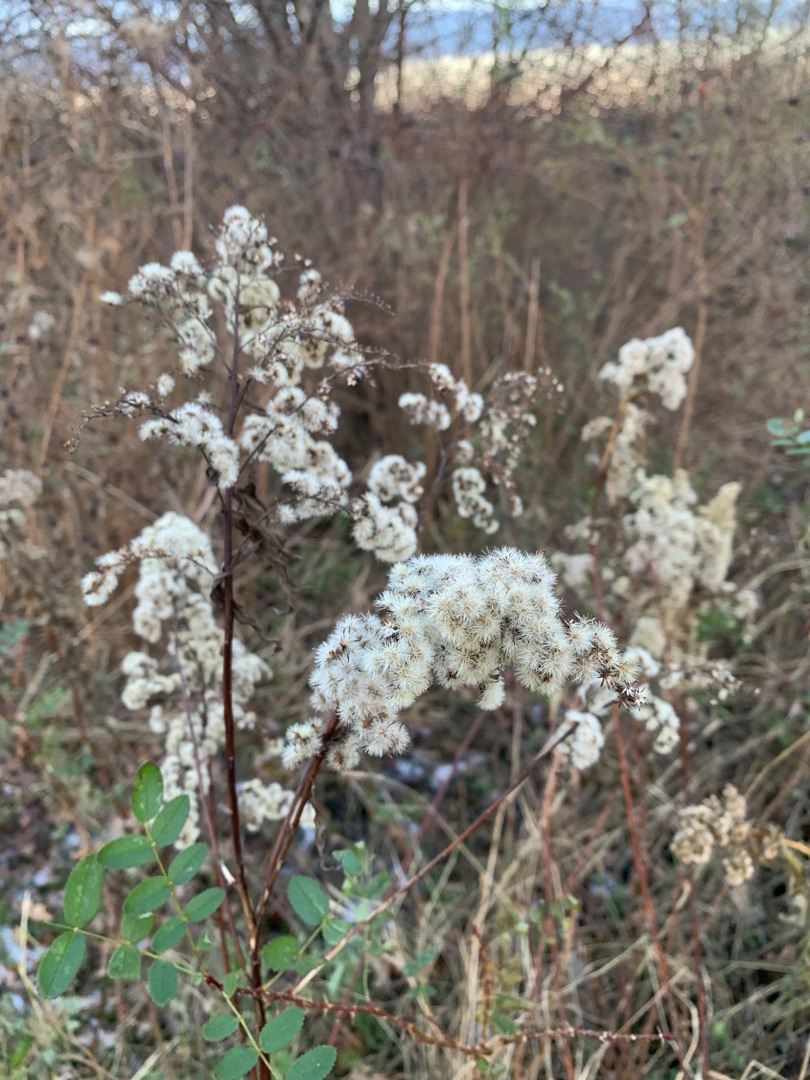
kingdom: Plantae
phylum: Tracheophyta
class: Magnoliopsida
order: Asterales
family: Asteraceae
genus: Solidago
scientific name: Solidago gigantea
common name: Sildig gyldenris
